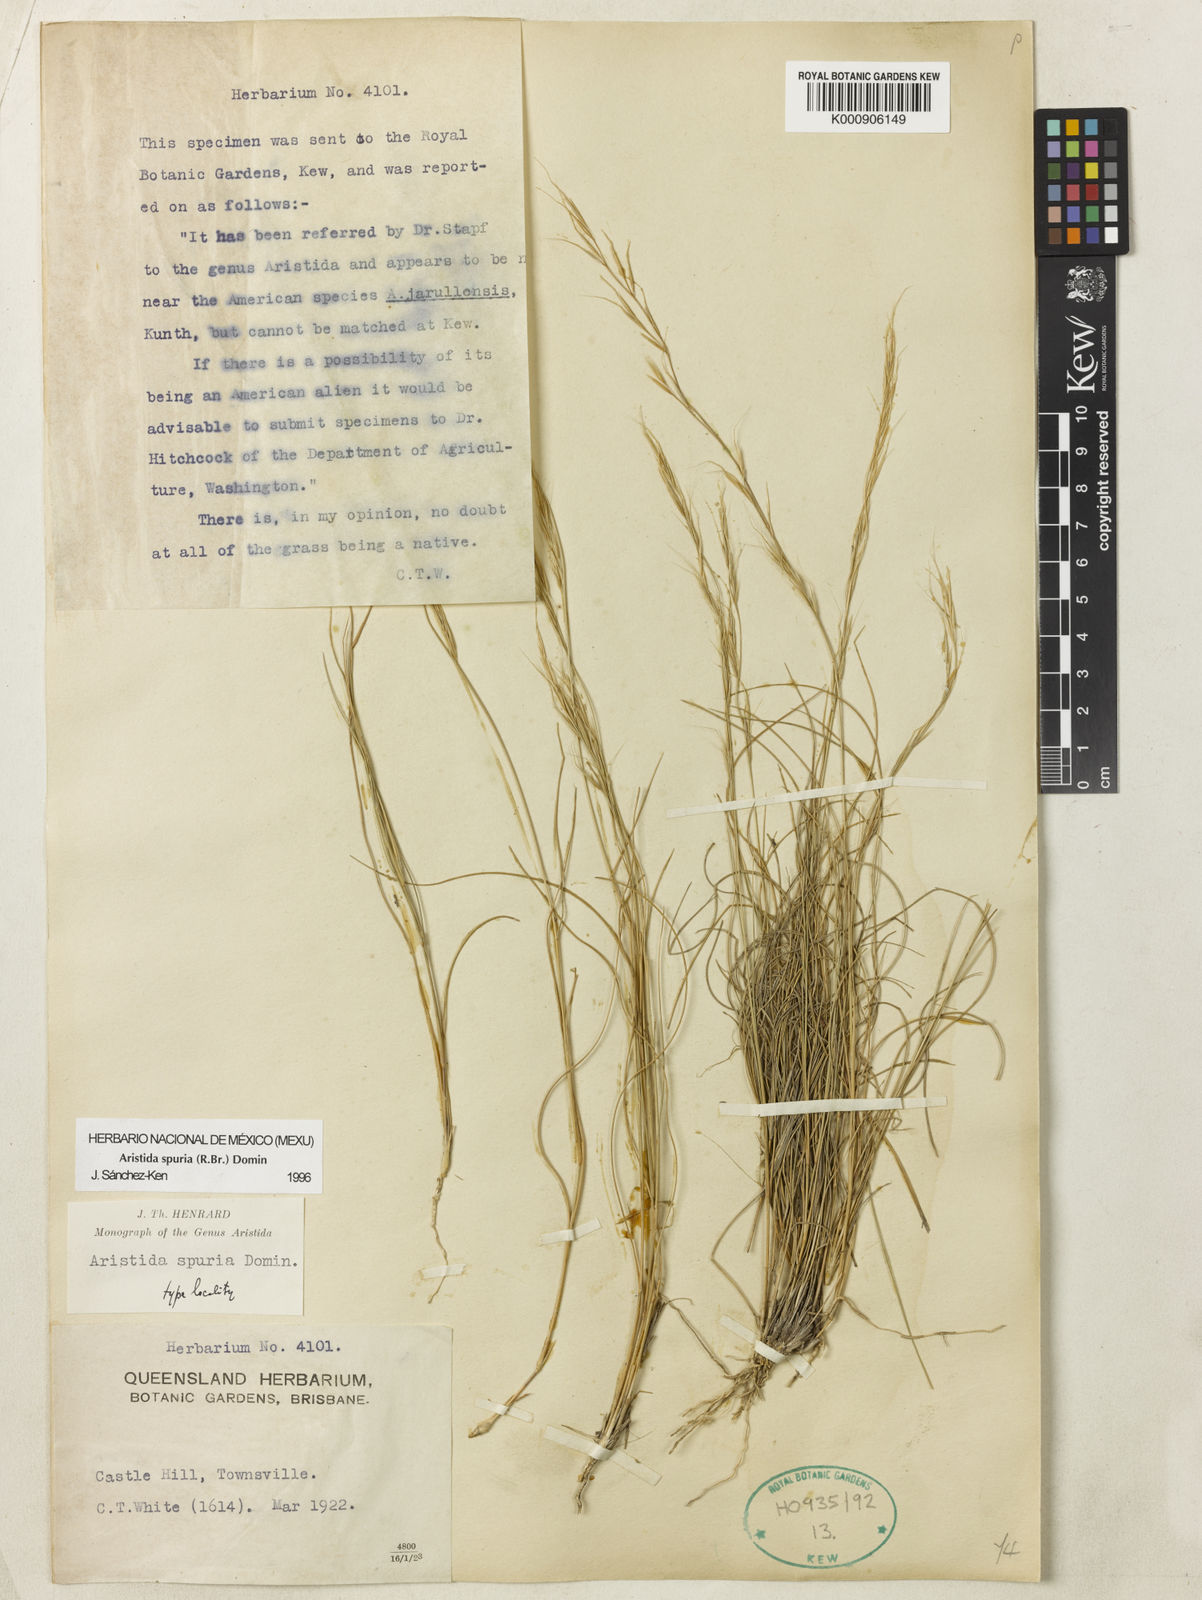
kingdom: Plantae
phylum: Tracheophyta
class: Liliopsida
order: Poales
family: Poaceae
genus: Aristida
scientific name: Aristida spuria
